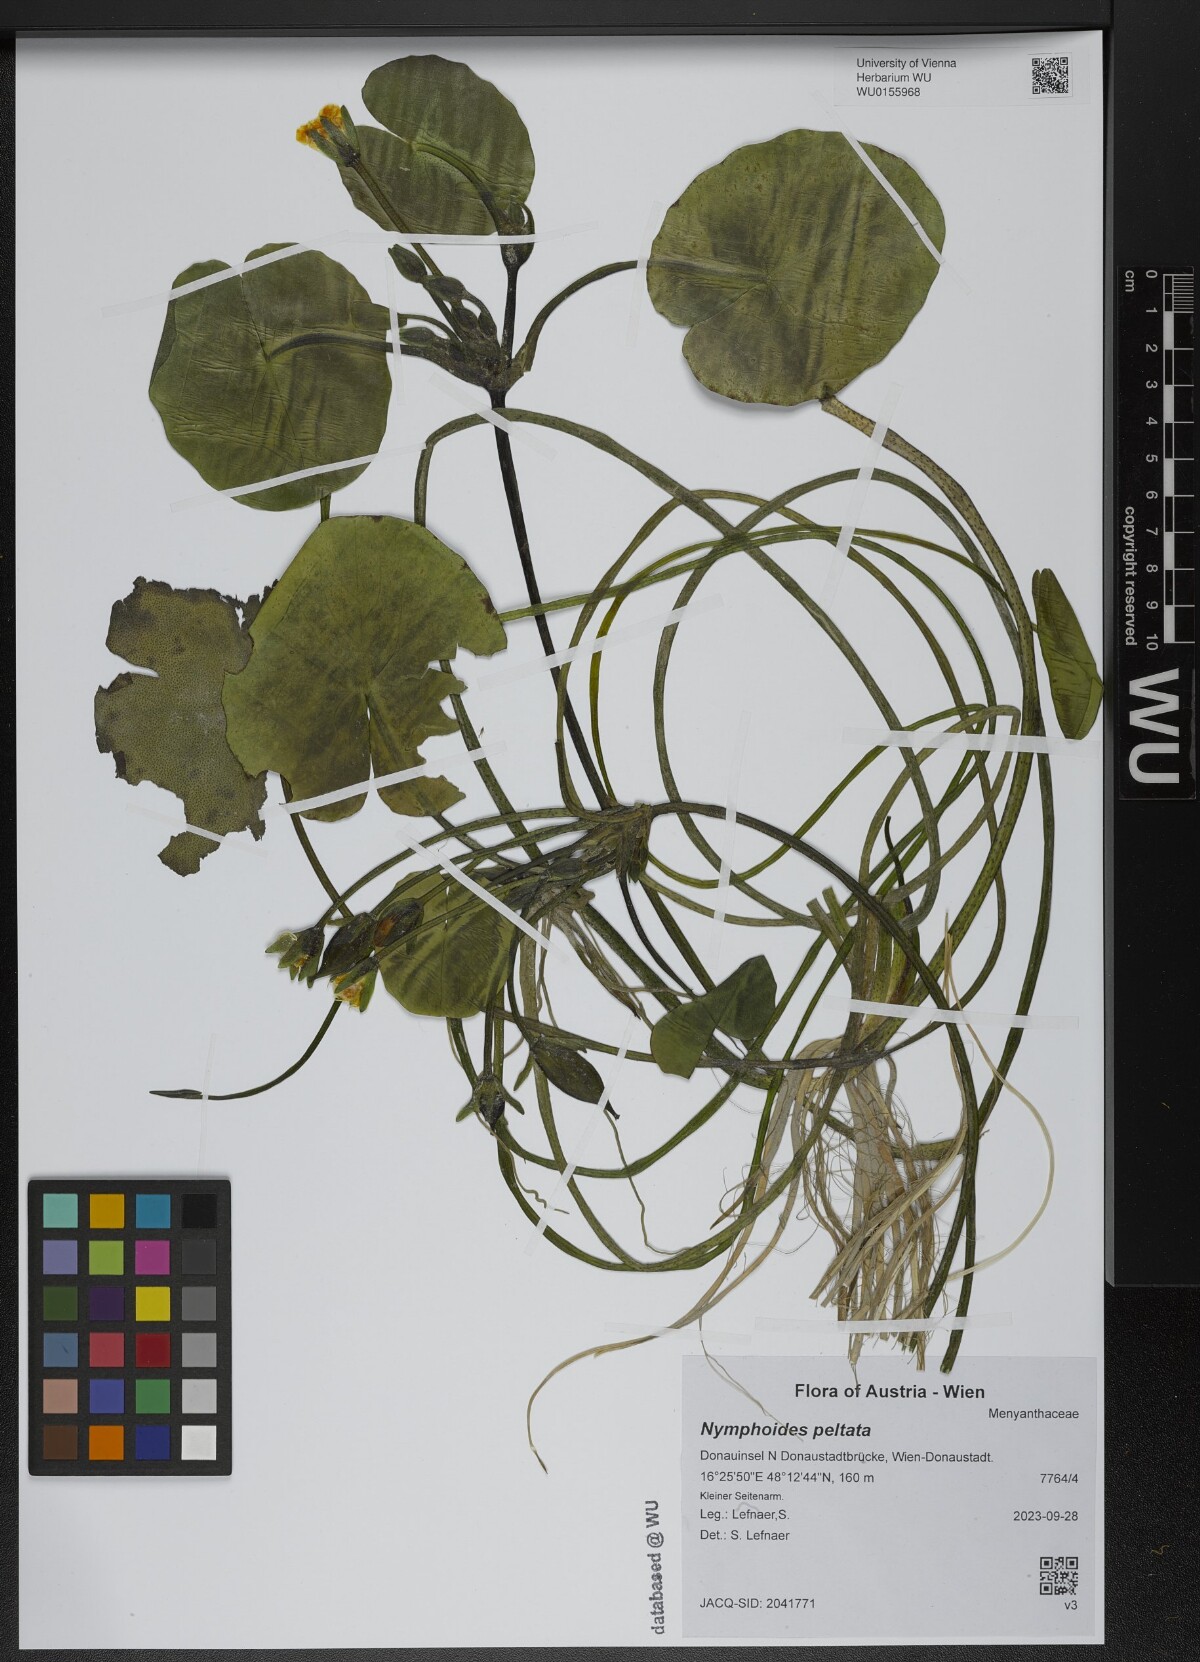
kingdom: Plantae
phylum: Tracheophyta
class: Magnoliopsida
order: Asterales
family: Menyanthaceae
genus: Nymphoides
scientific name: Nymphoides peltata
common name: Fringed water-lily
